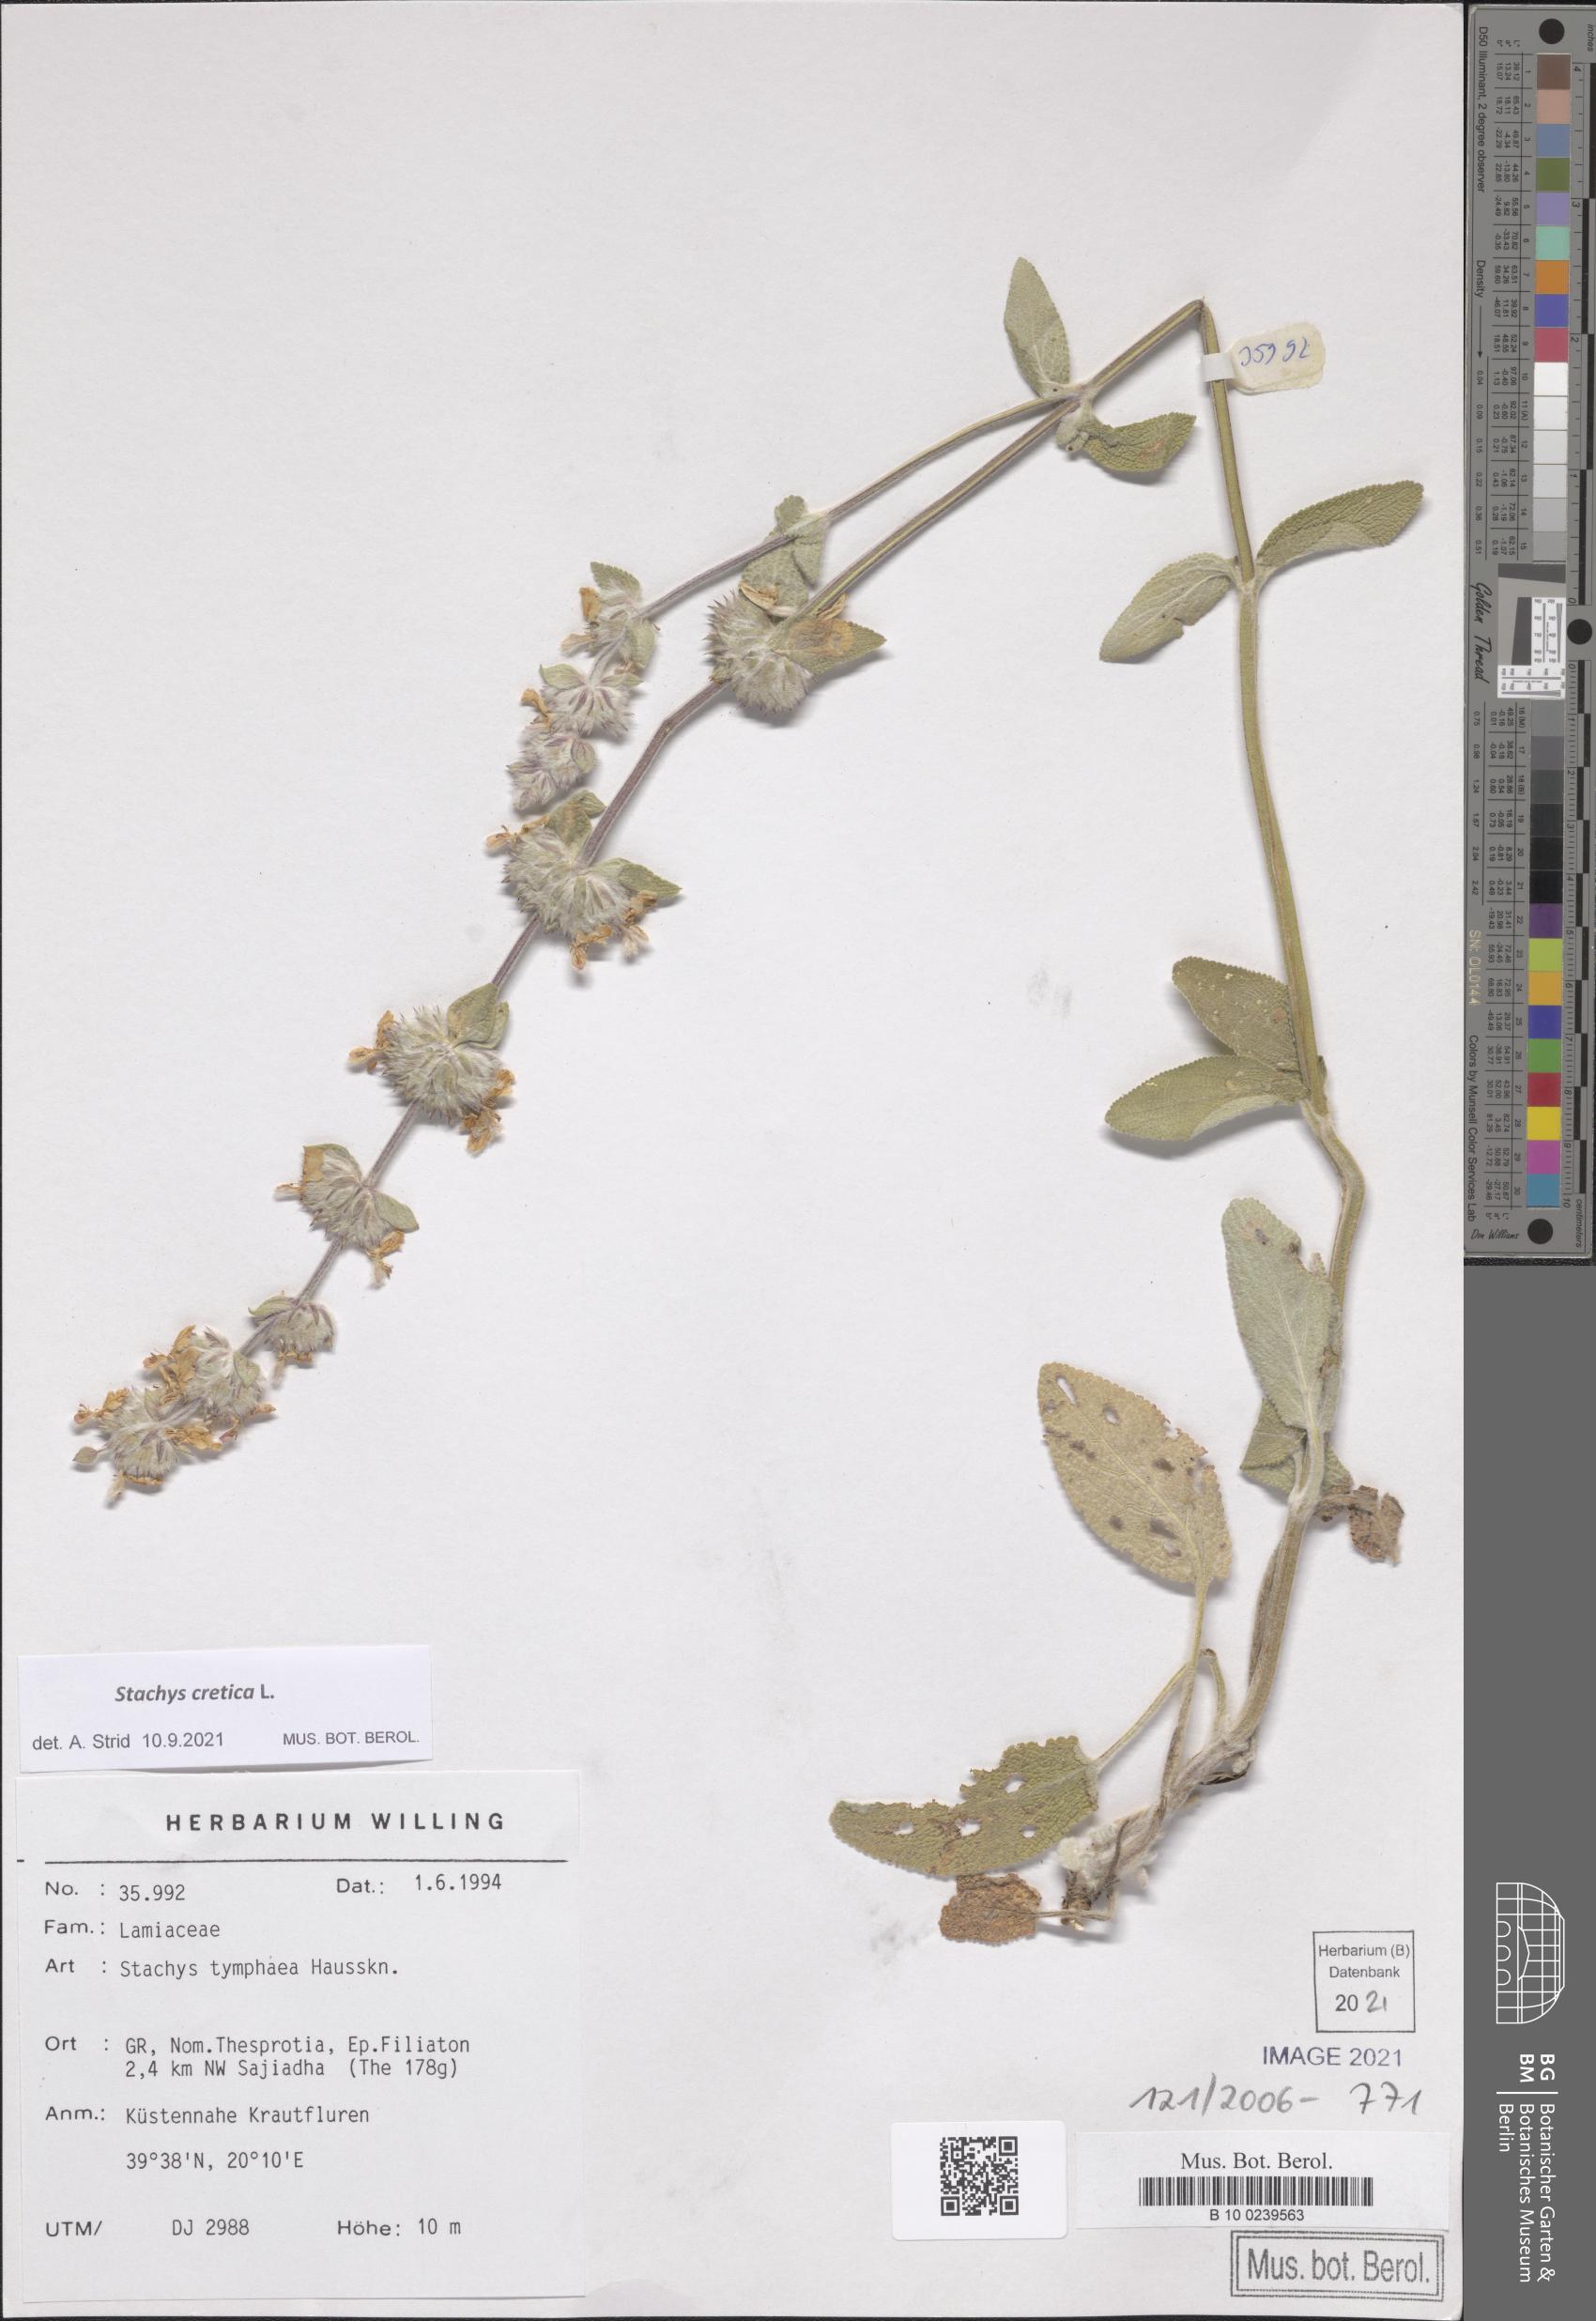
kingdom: Plantae
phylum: Tracheophyta
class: Magnoliopsida
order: Lamiales
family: Lamiaceae
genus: Stachys
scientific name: Stachys cretica
